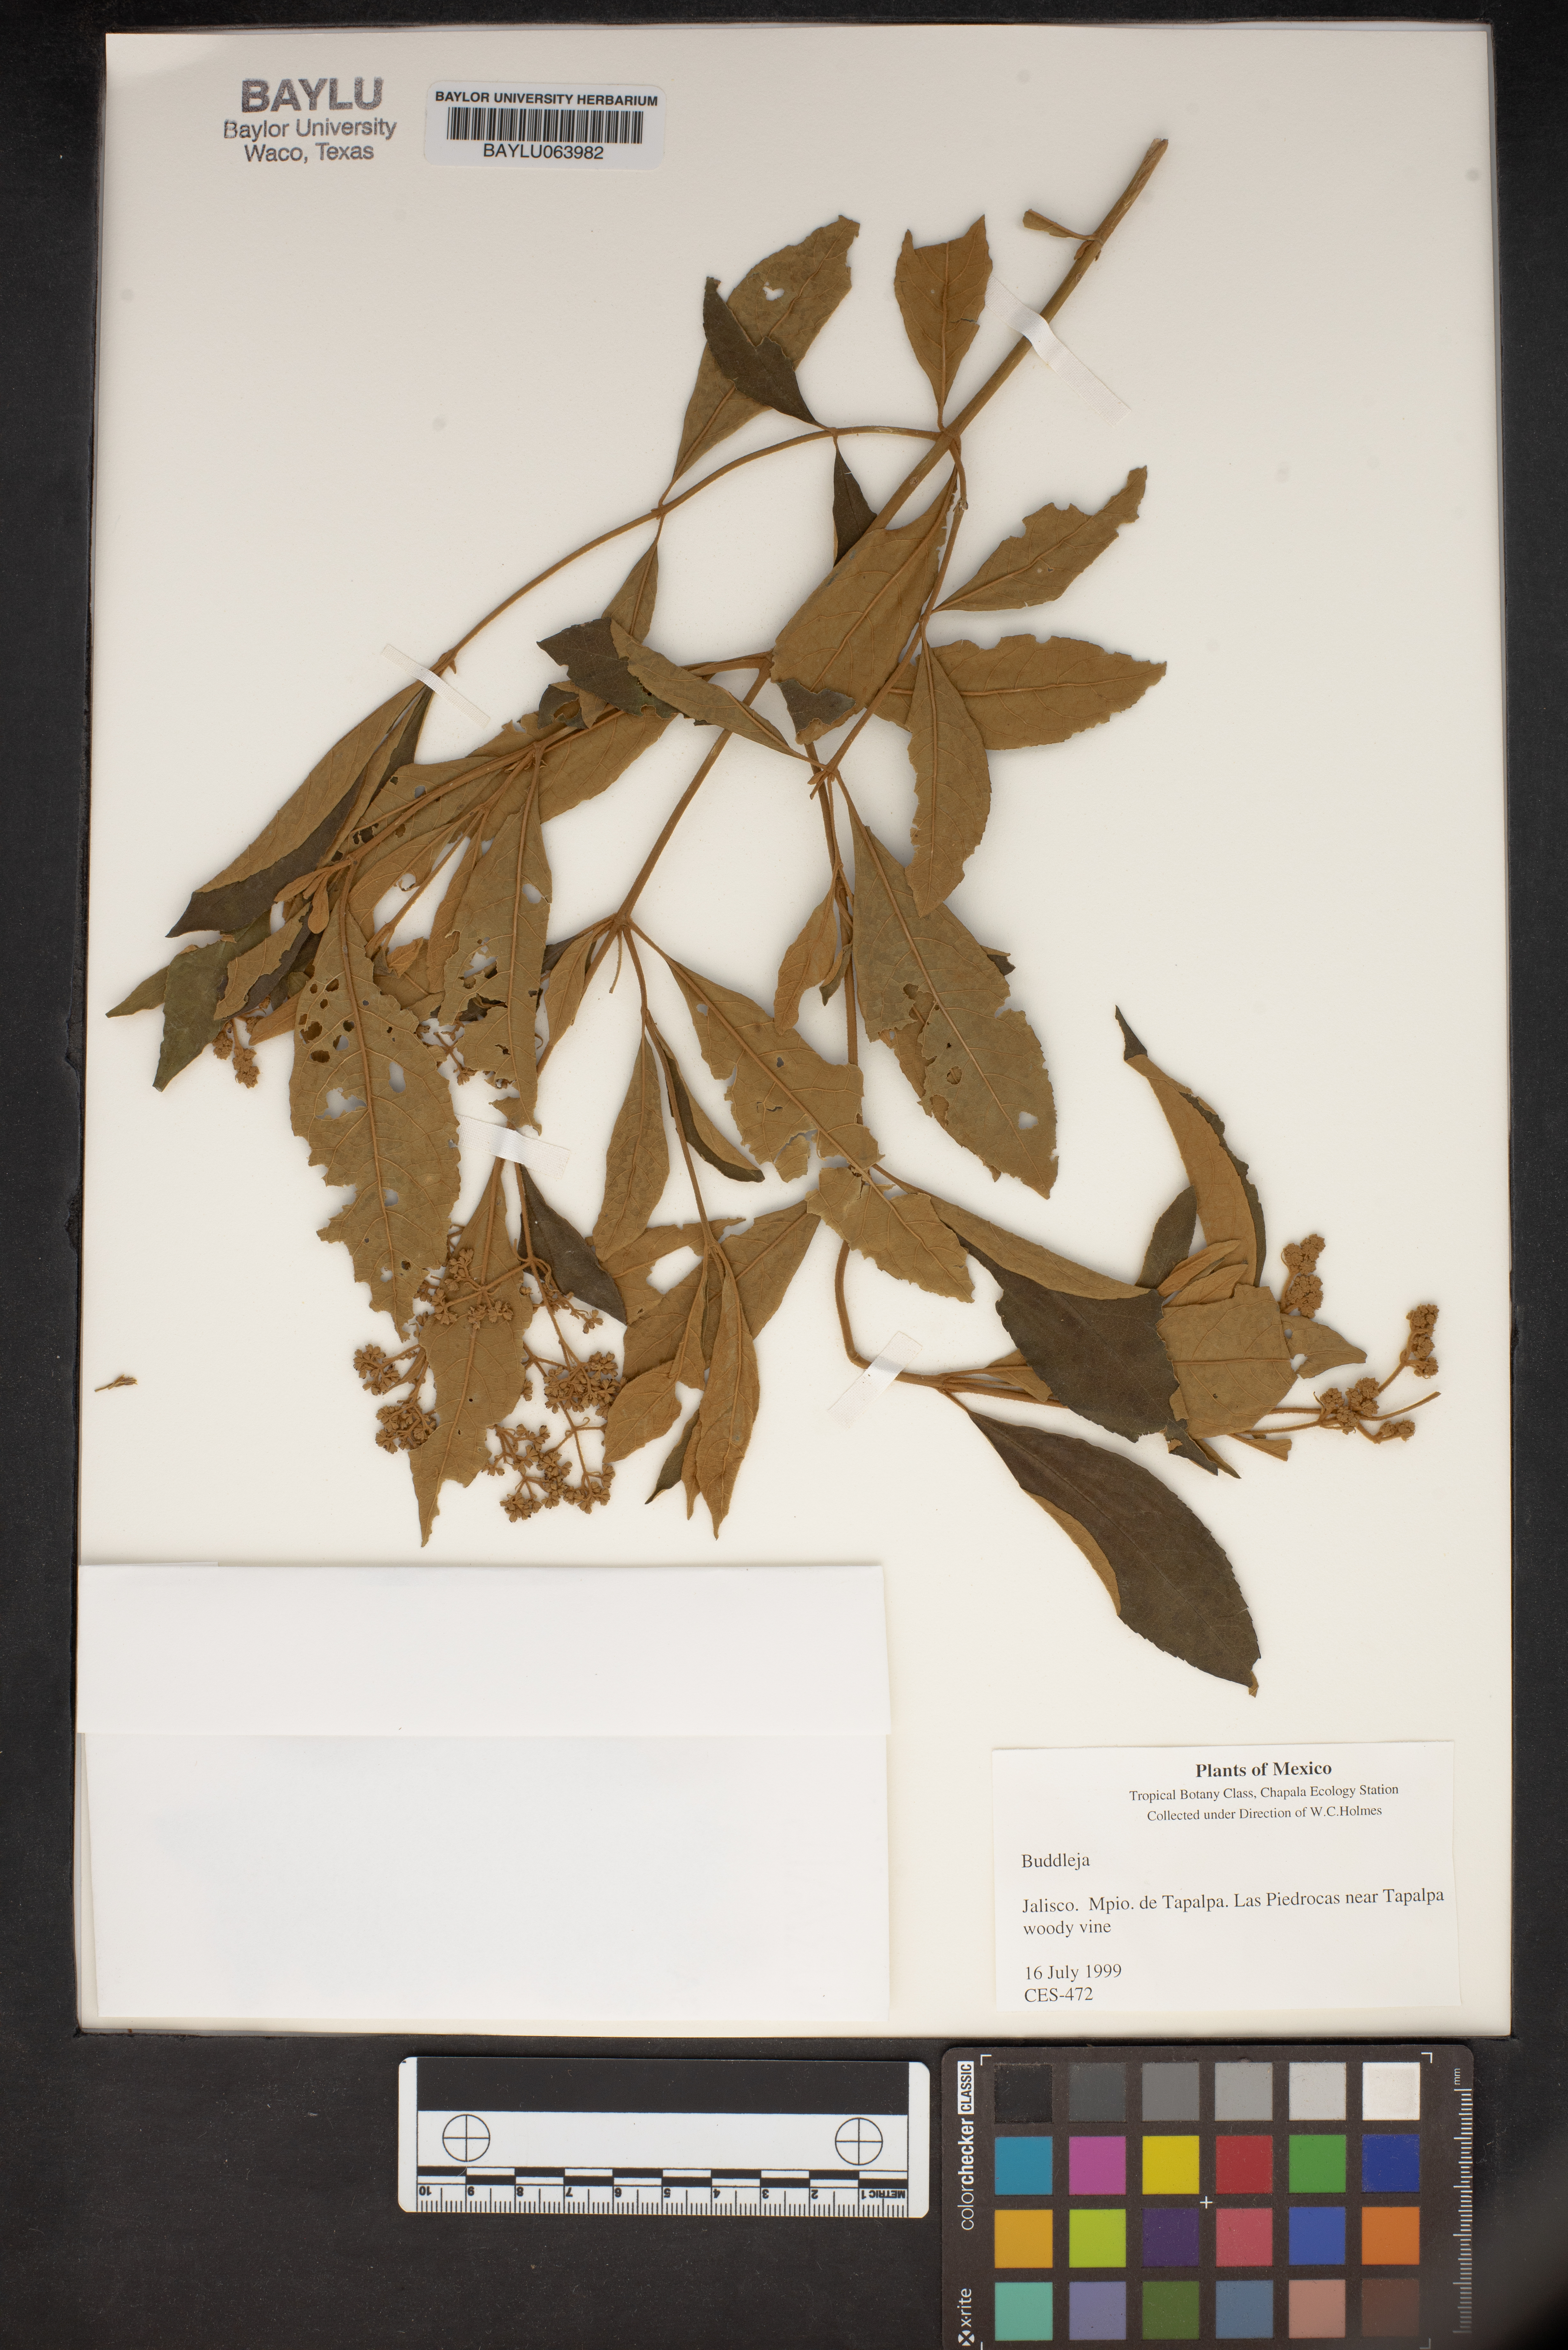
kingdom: Plantae
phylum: Tracheophyta
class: Magnoliopsida
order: Lamiales
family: Scrophulariaceae
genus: Buddleja
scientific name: Buddleja
